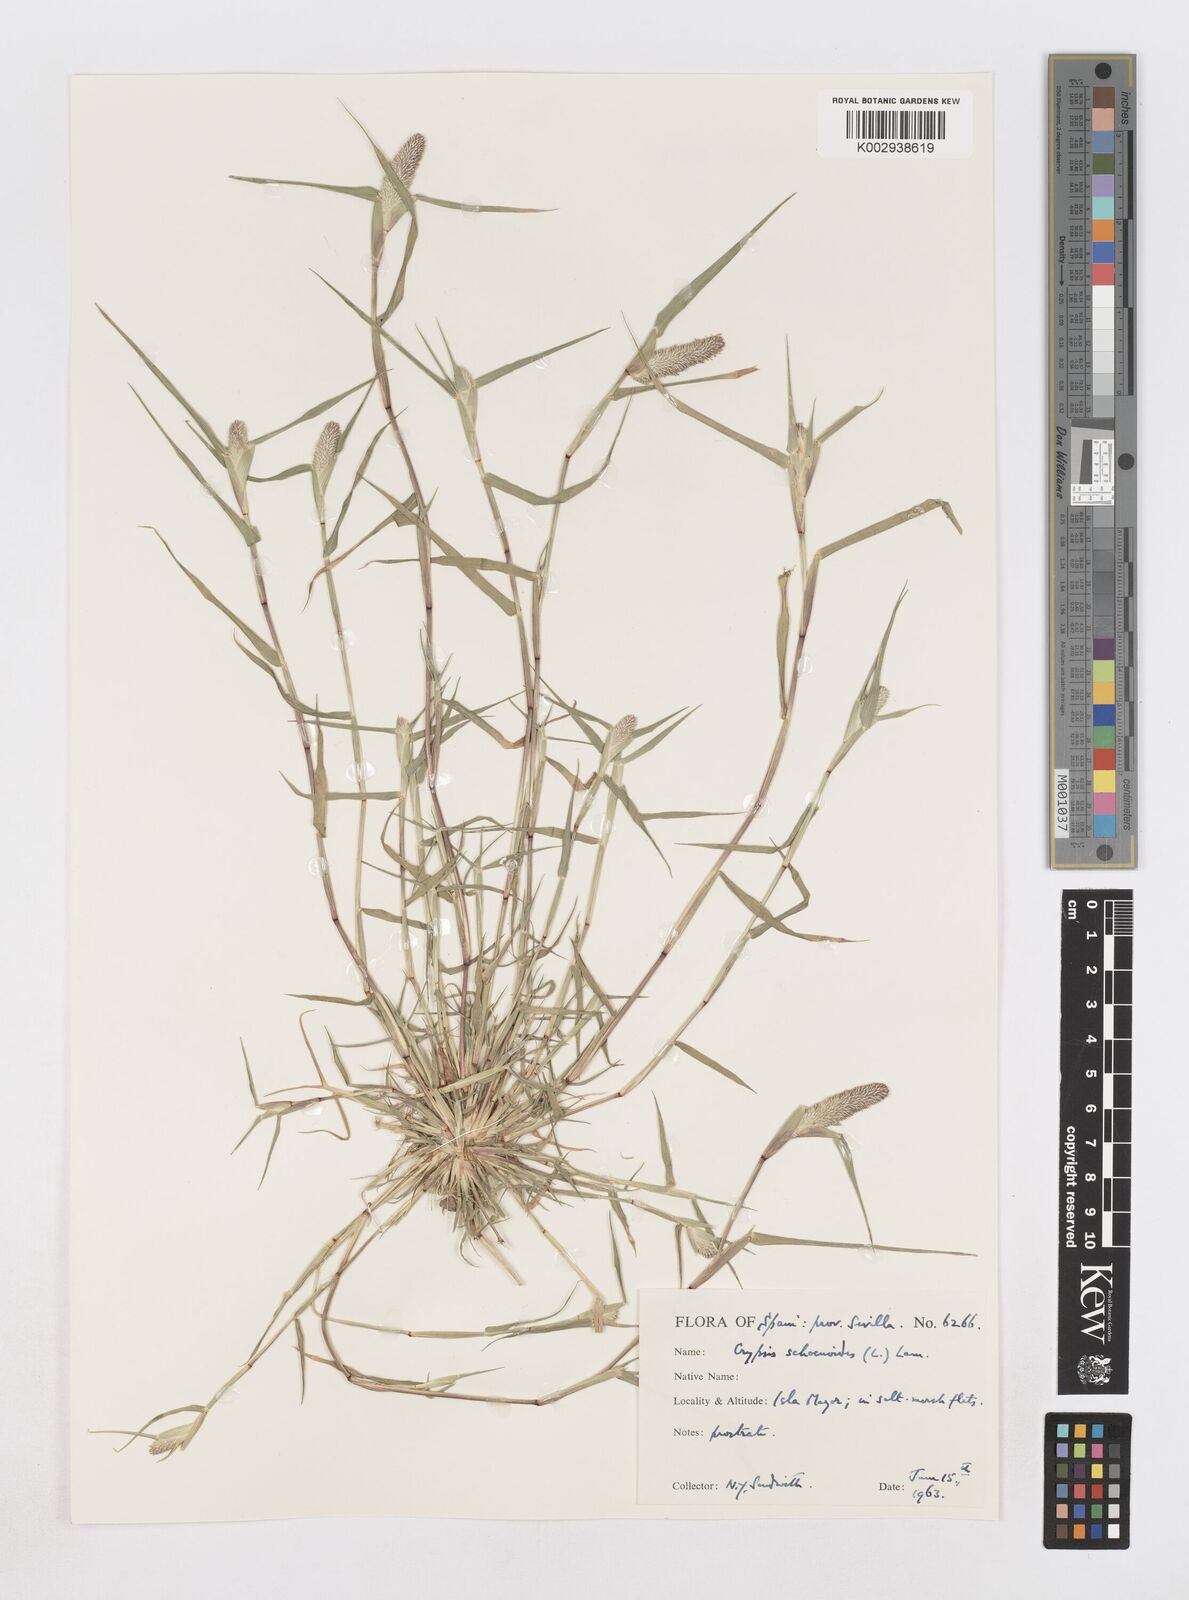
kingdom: Plantae
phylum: Tracheophyta
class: Liliopsida
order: Poales
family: Poaceae
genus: Sporobolus
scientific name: Sporobolus schoenoides
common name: Rush-like timothy
